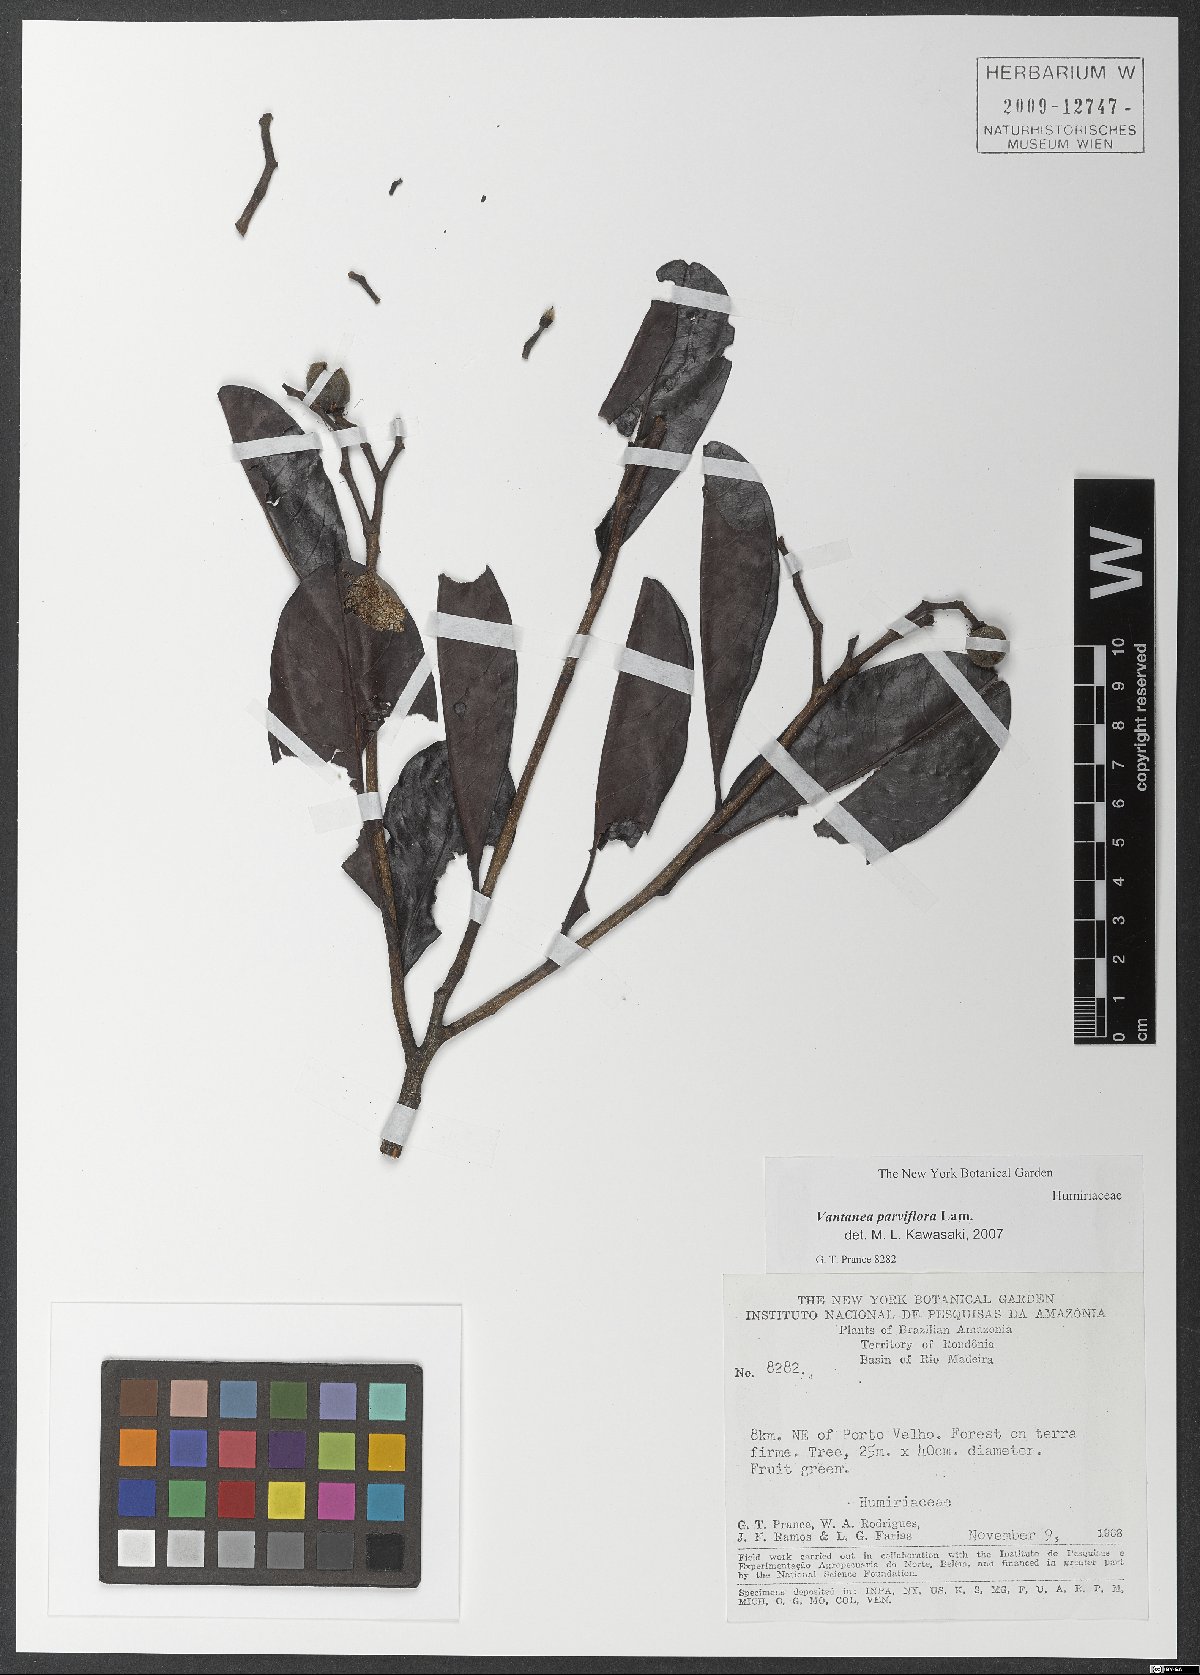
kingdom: Plantae
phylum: Tracheophyta
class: Magnoliopsida
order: Malpighiales
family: Humiriaceae
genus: Vantanea
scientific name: Vantanea parviflora
